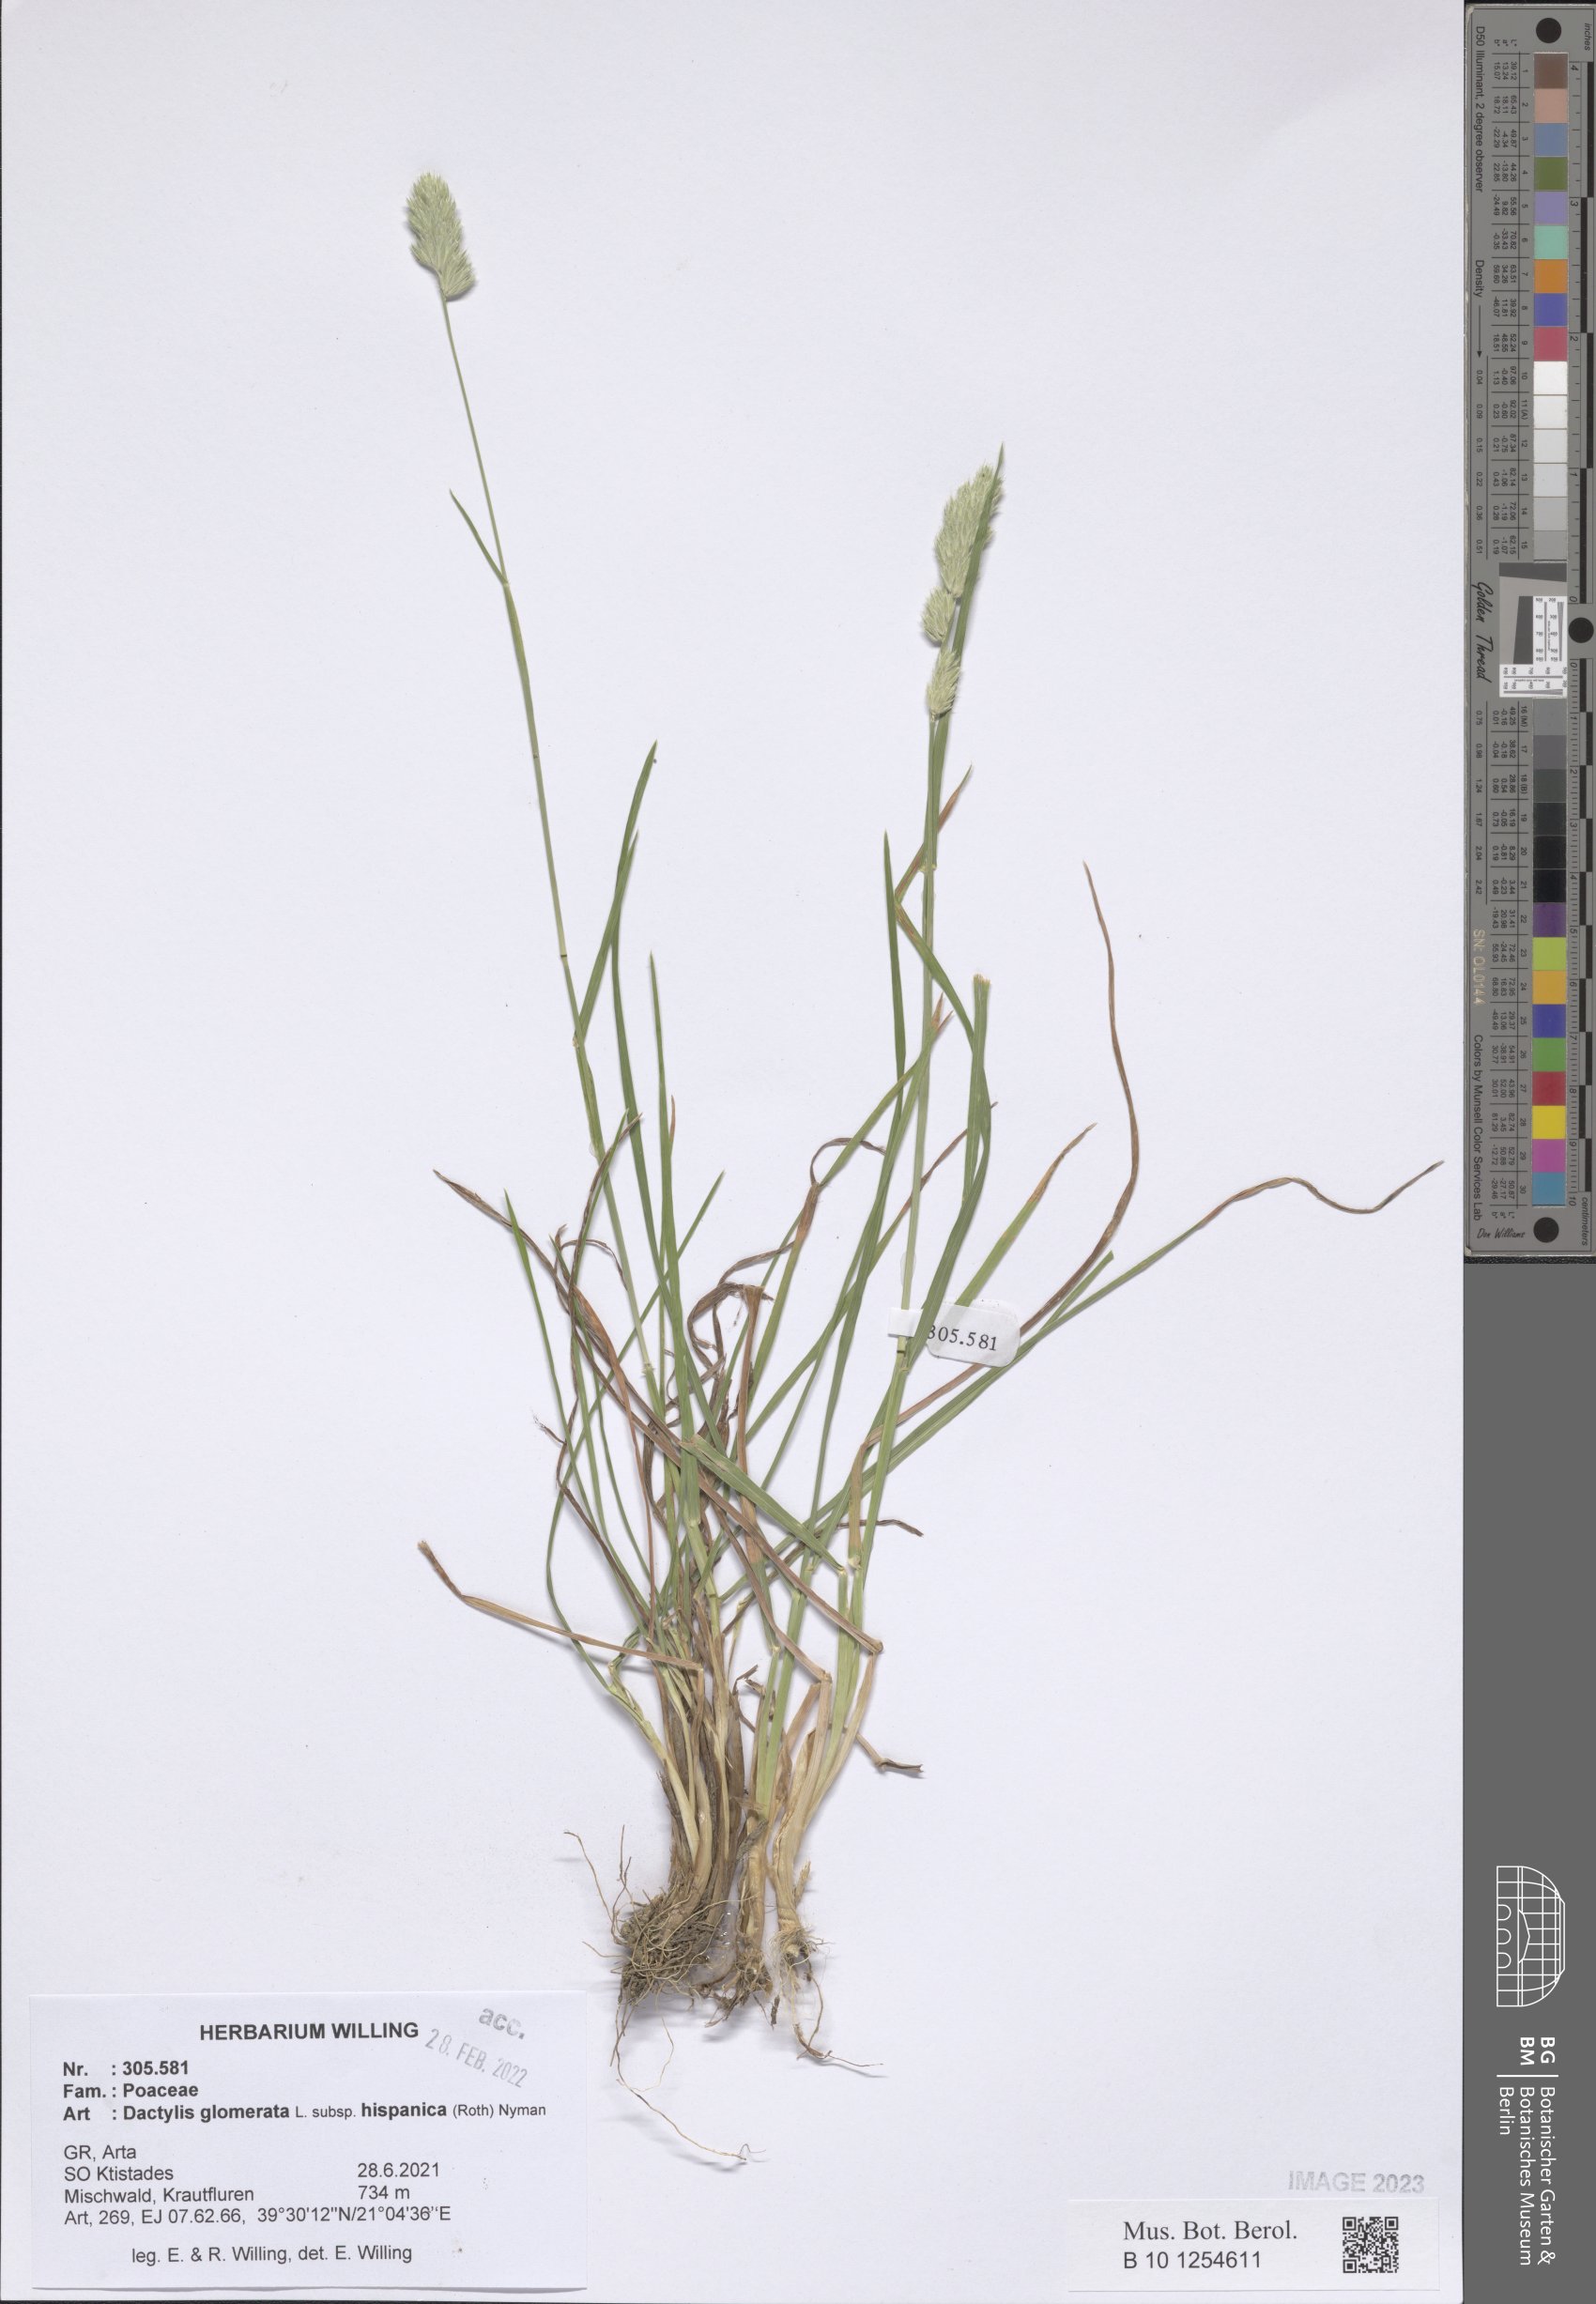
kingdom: Plantae
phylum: Tracheophyta
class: Liliopsida
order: Poales
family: Poaceae
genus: Dactylis
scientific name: Dactylis glomerata
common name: Orchardgrass
